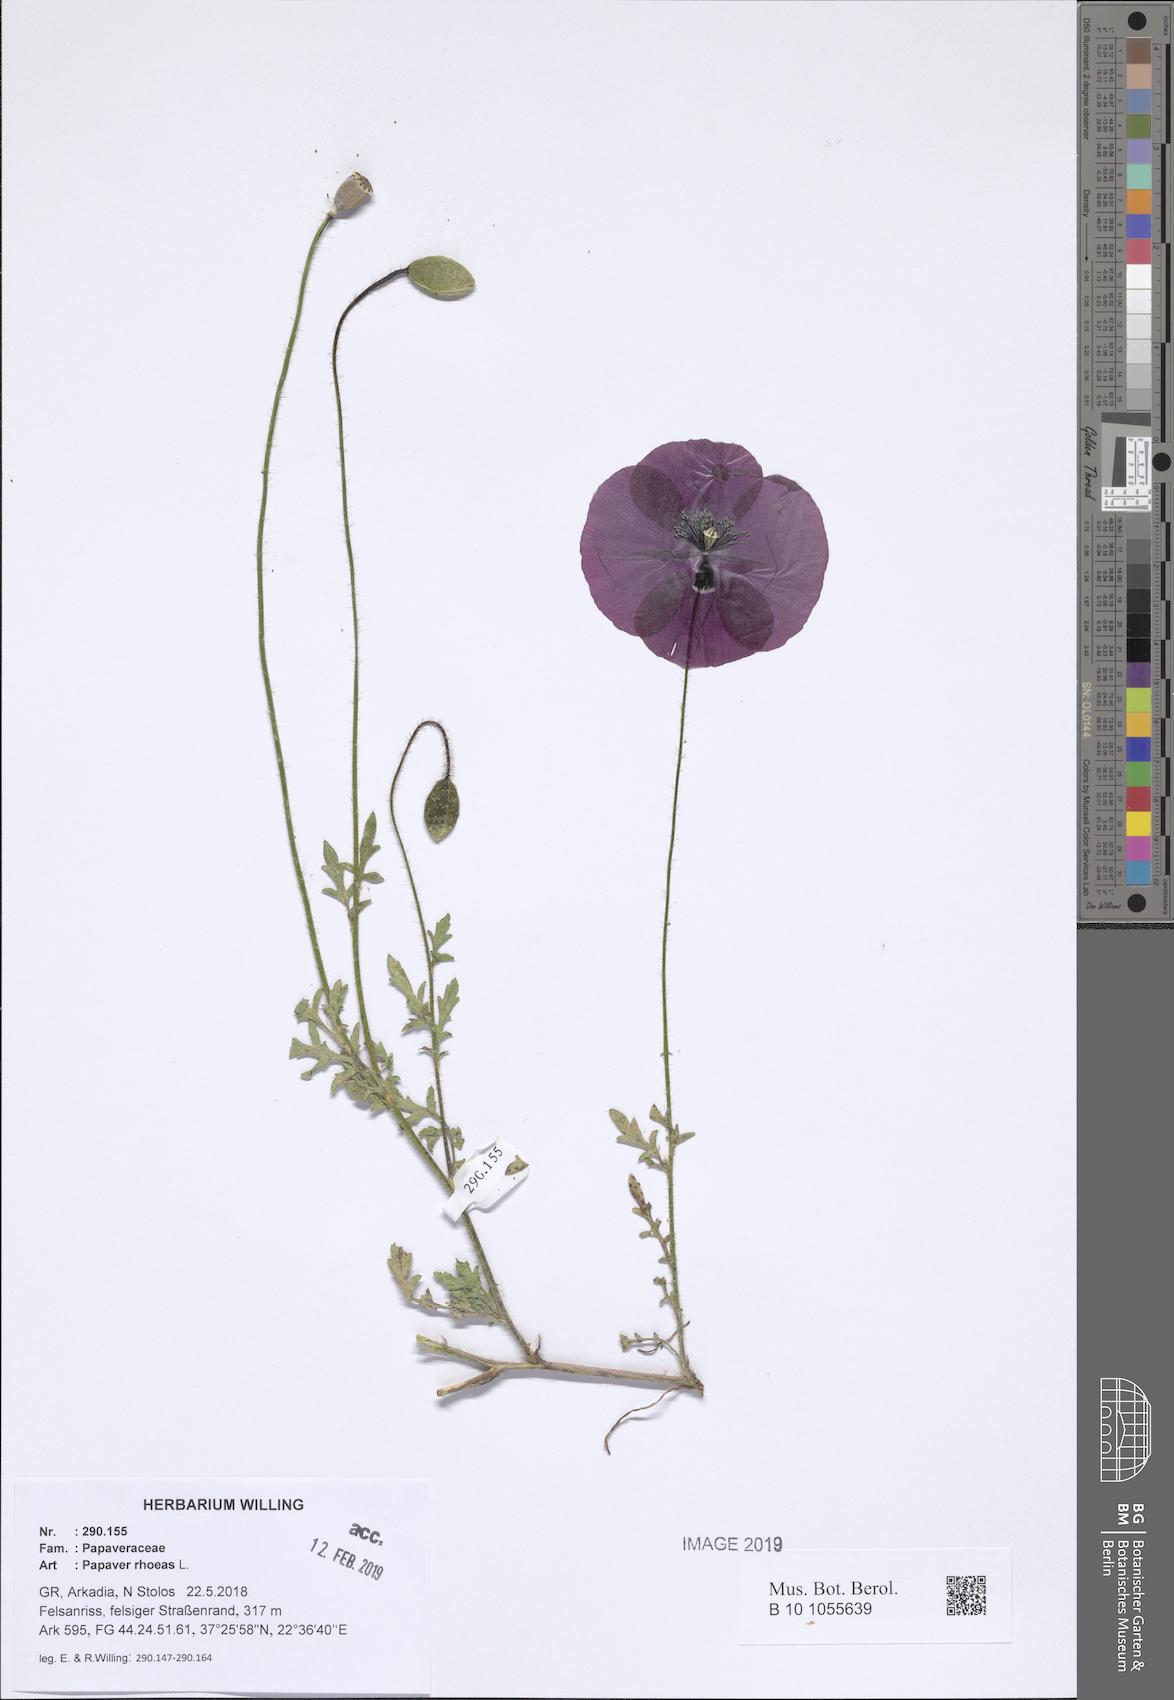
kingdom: Plantae
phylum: Tracheophyta
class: Magnoliopsida
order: Ranunculales
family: Papaveraceae
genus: Papaver
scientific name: Papaver rhoeas
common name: Corn poppy
